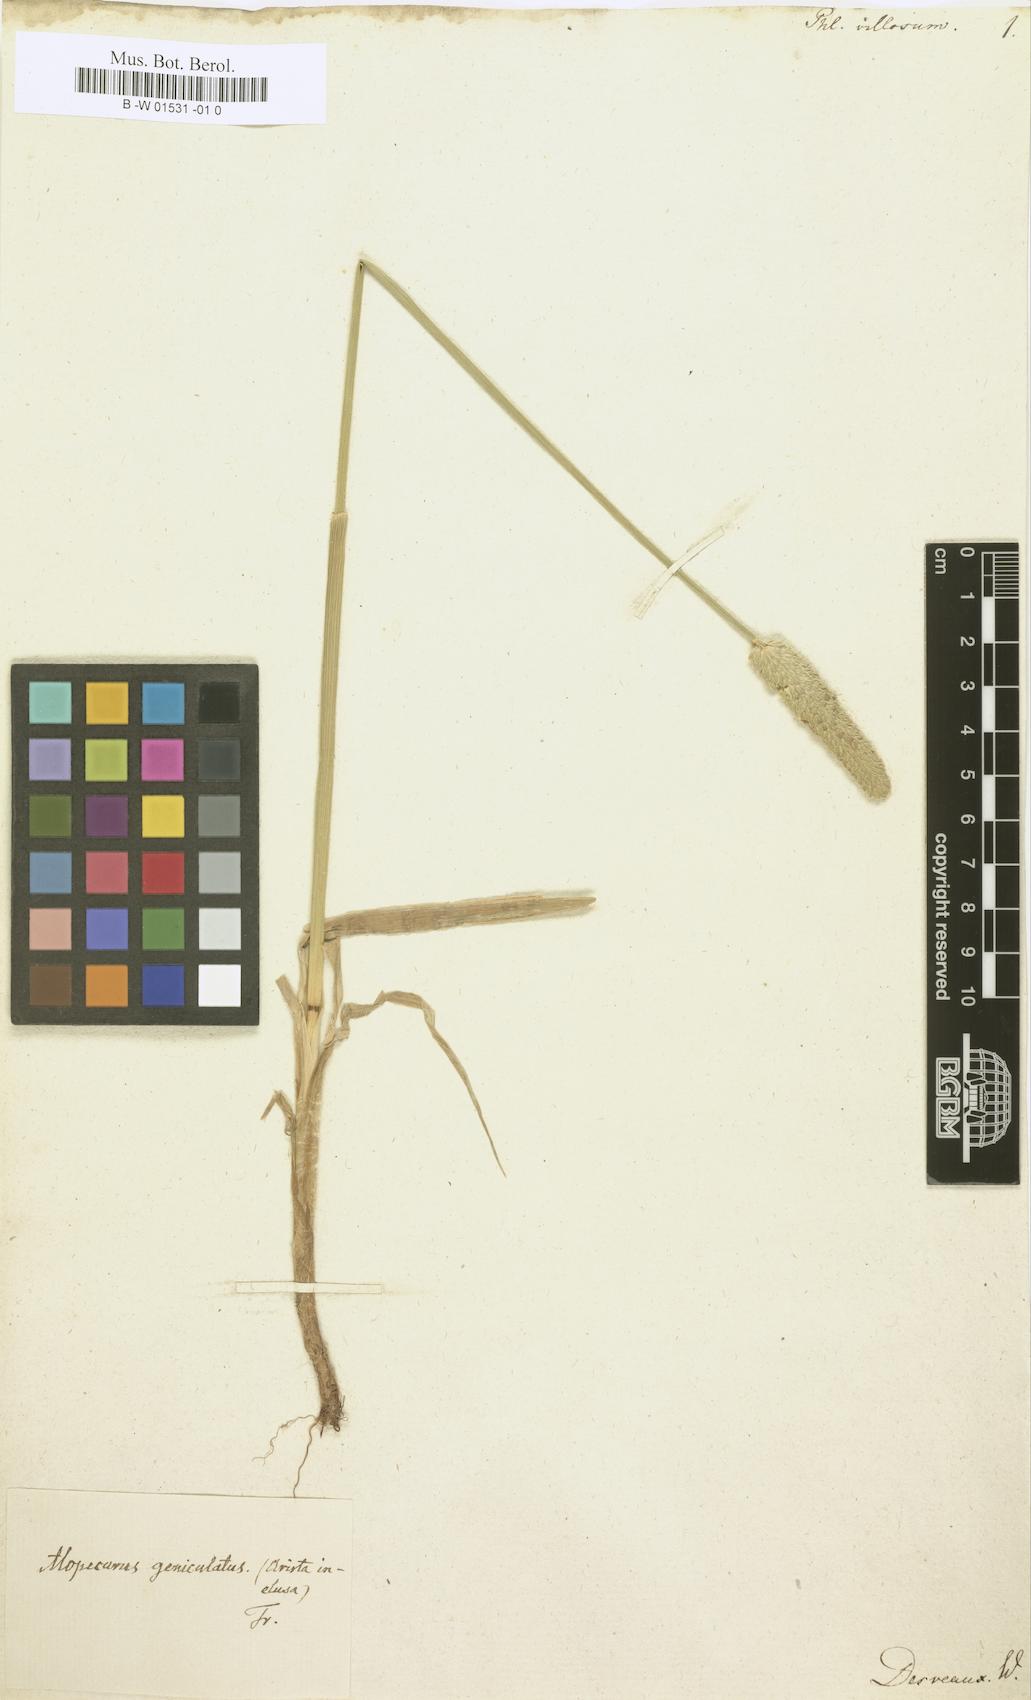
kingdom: Plantae
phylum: Tracheophyta
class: Liliopsida
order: Poales
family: Poaceae
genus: Phleum
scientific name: Phleum pratense
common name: Timothy grass
